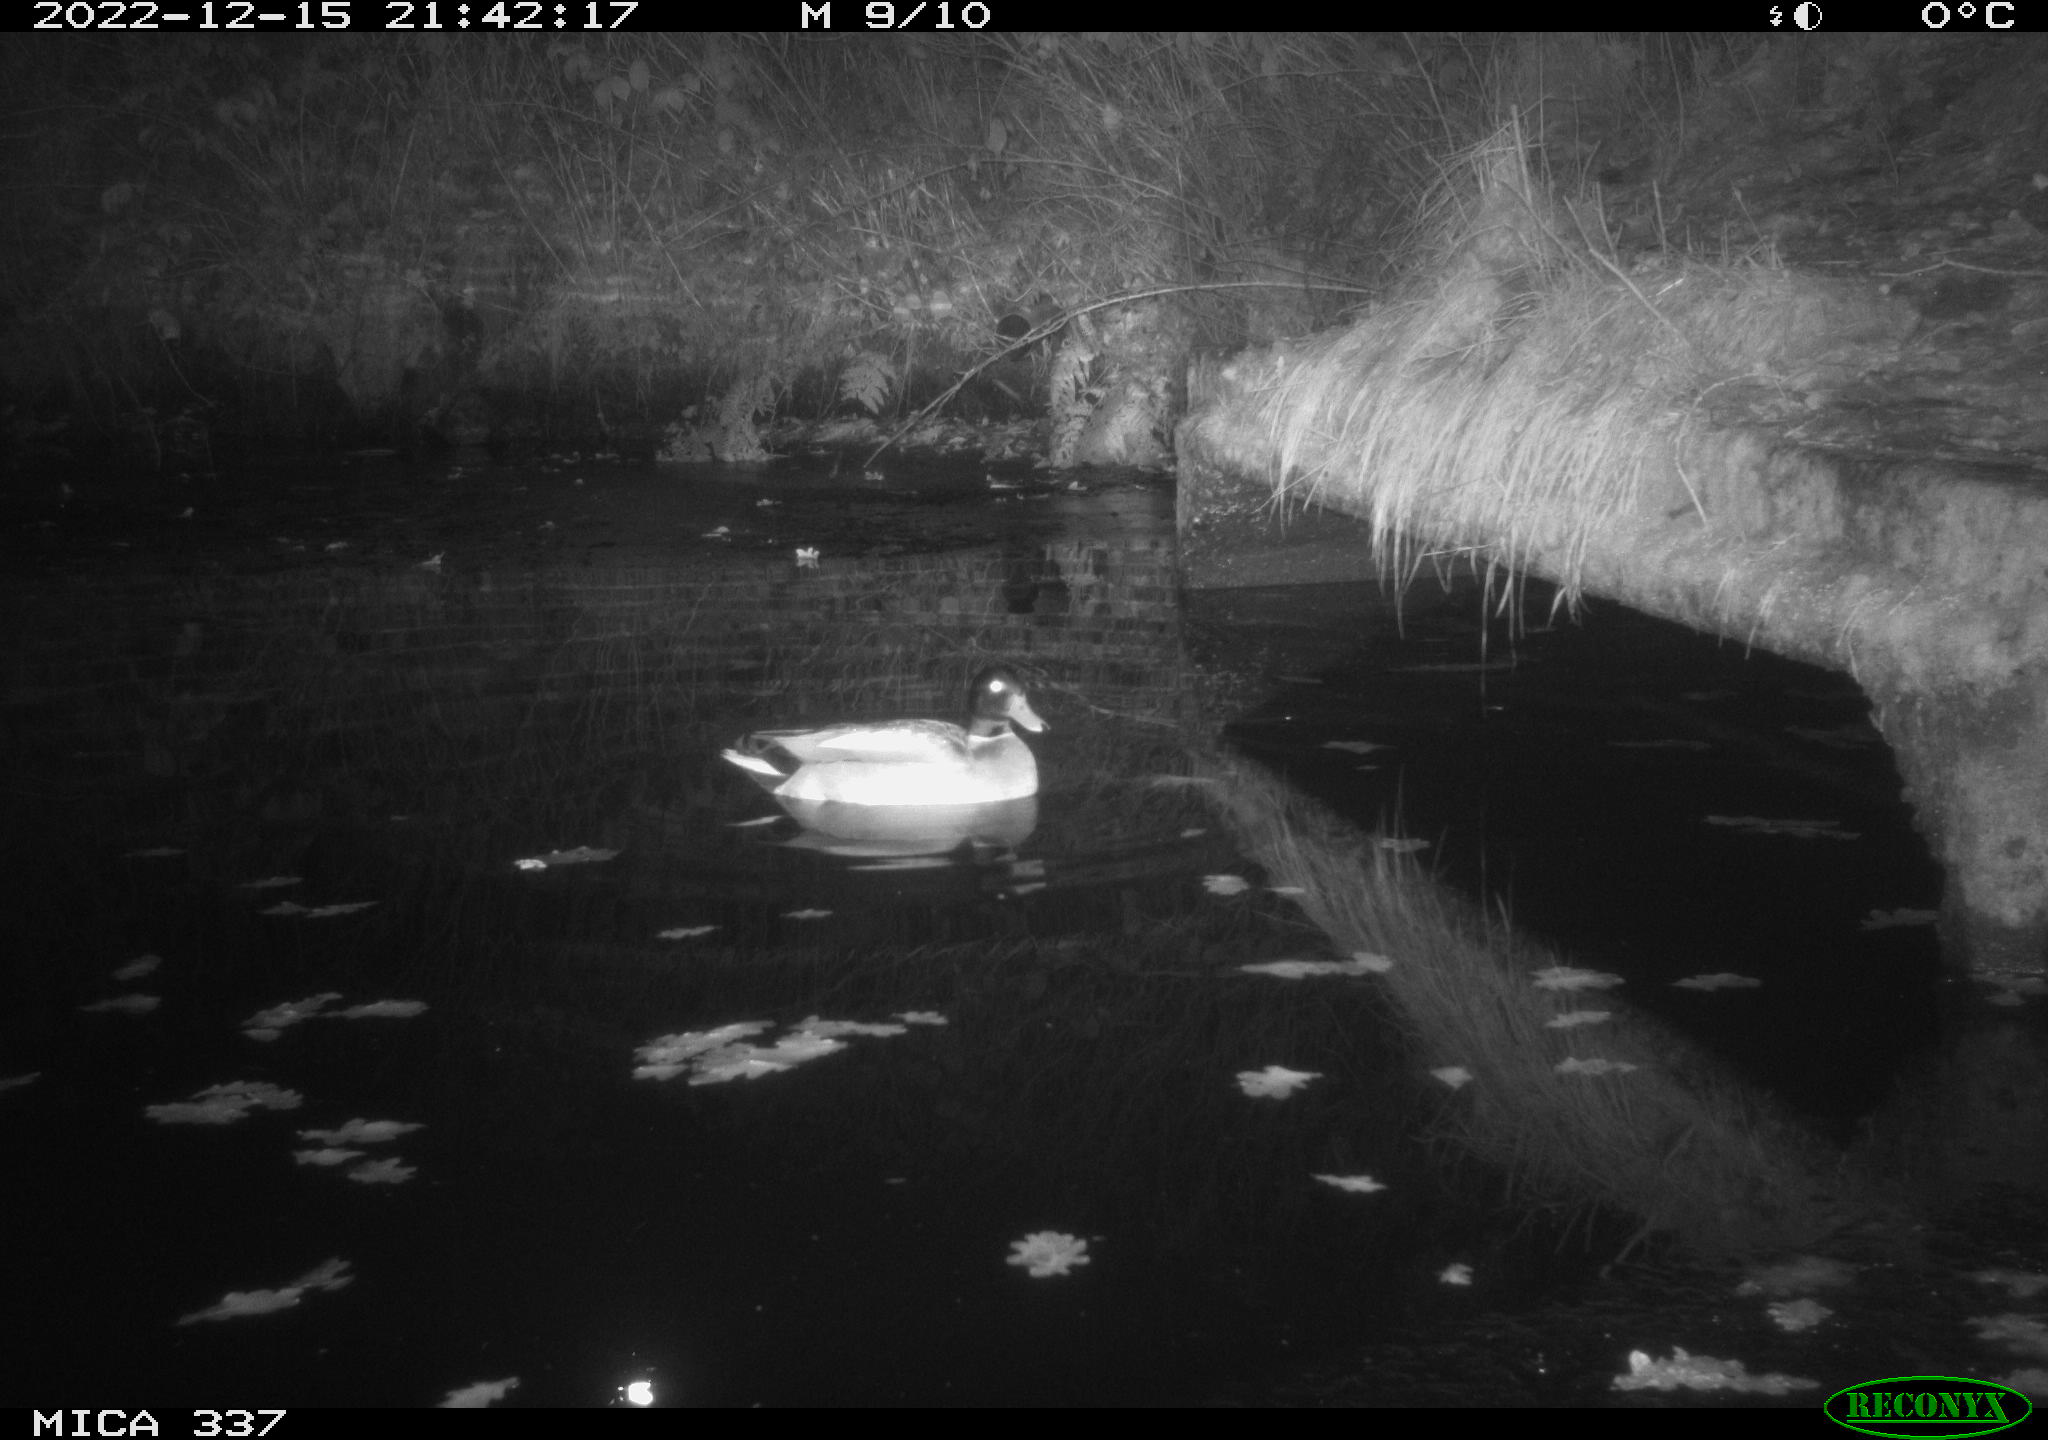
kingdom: Animalia
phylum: Chordata
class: Aves
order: Anseriformes
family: Anatidae
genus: Anas
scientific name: Anas platyrhynchos
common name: Mallard
